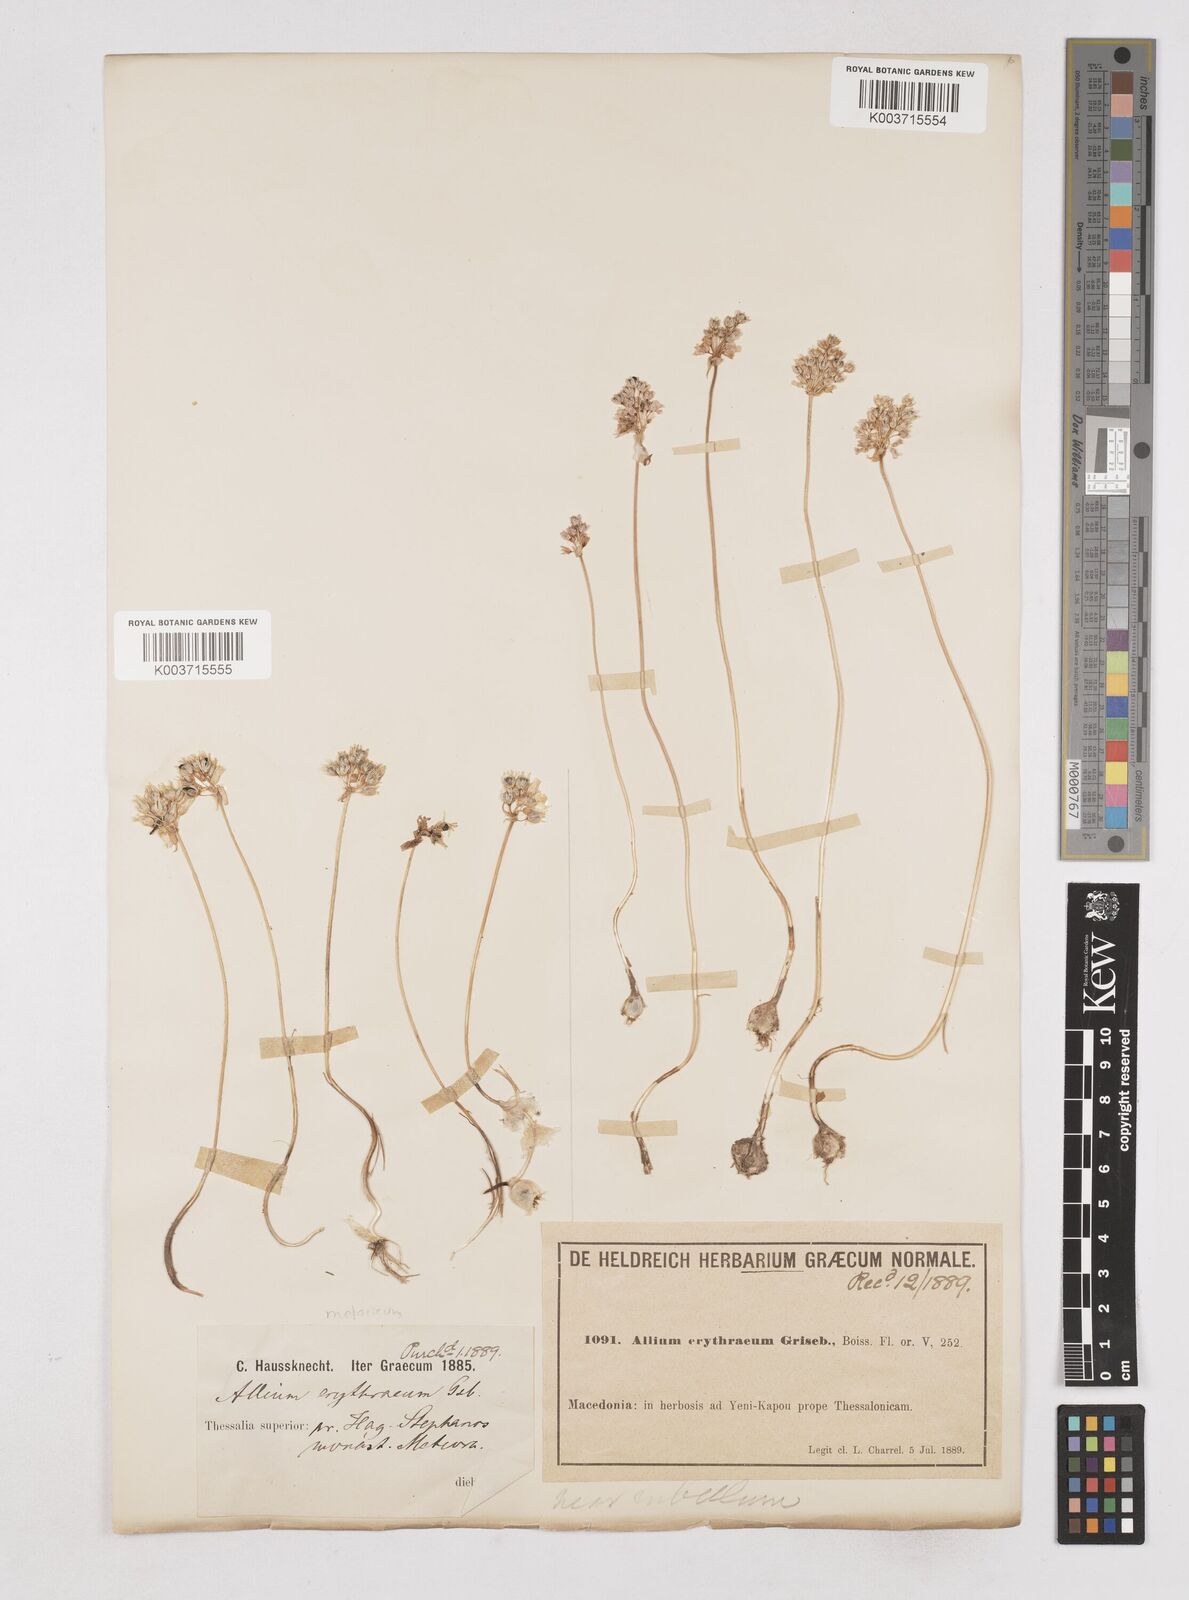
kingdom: Plantae
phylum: Tracheophyta
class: Liliopsida
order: Asparagales
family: Amaryllidaceae
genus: Allium
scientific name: Allium
